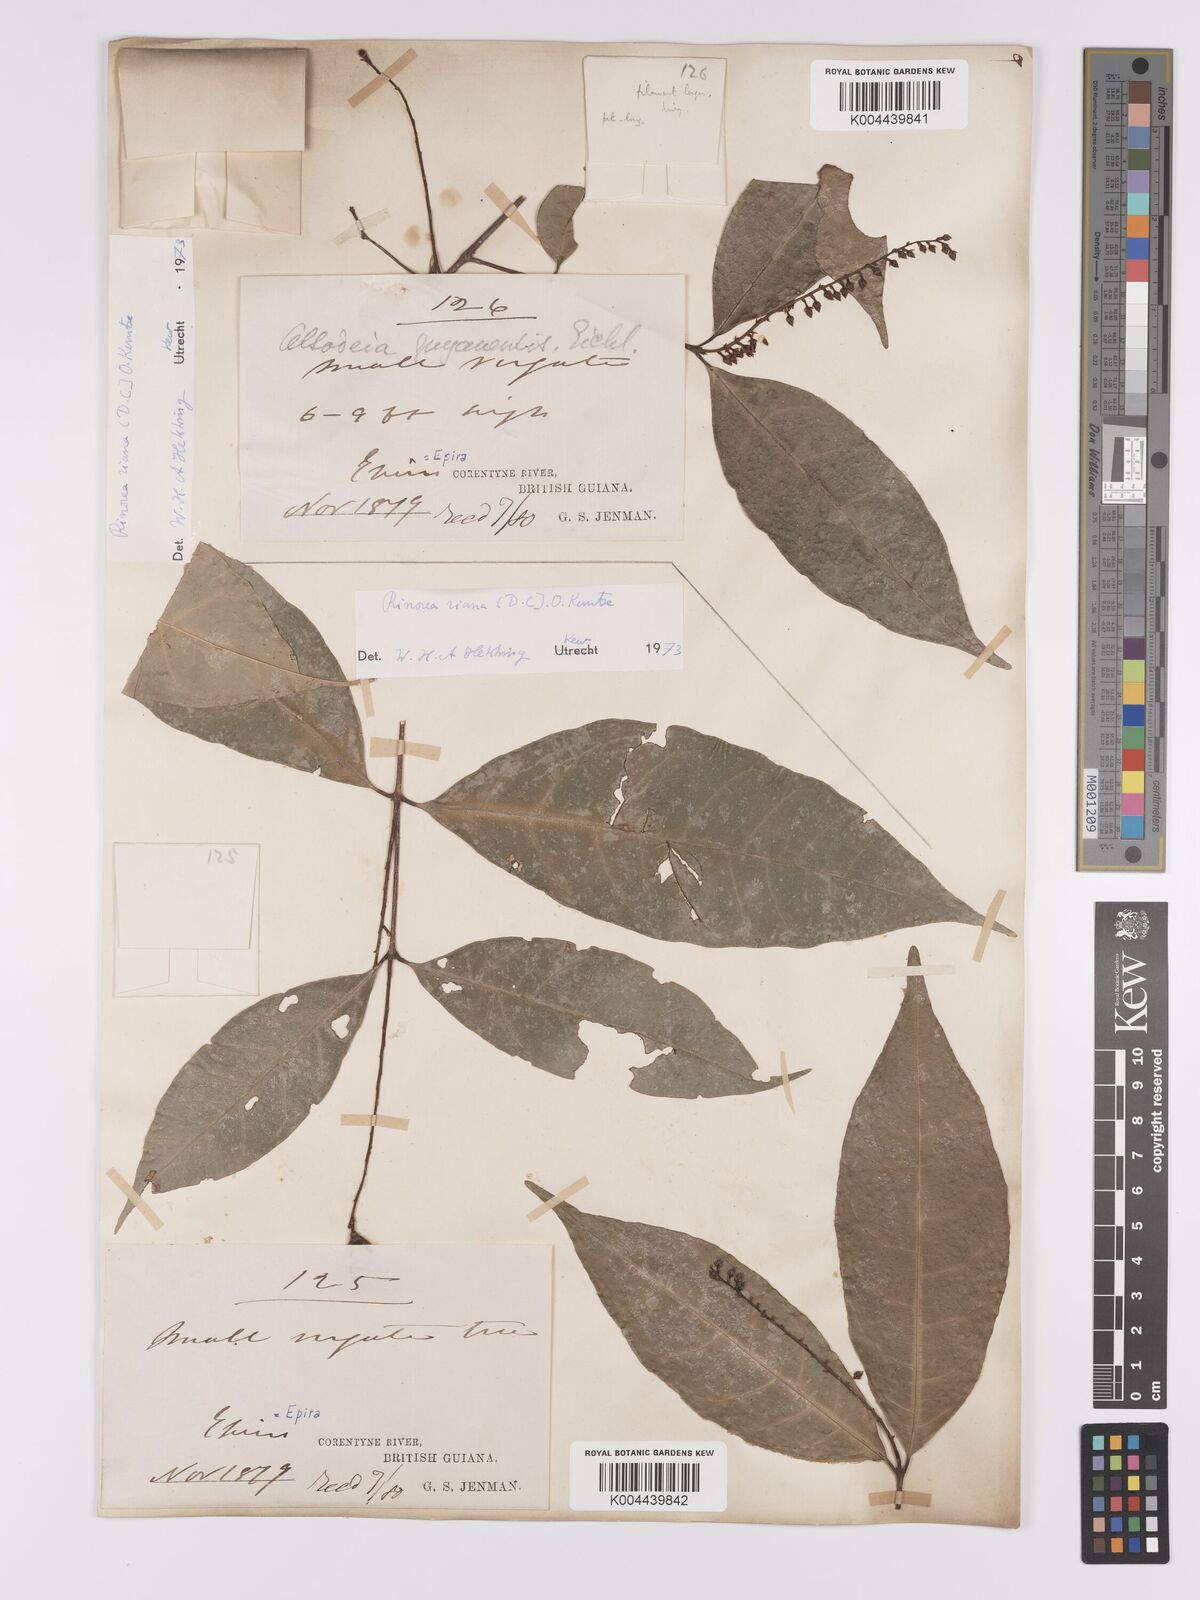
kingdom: Plantae
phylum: Tracheophyta
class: Magnoliopsida
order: Malpighiales
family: Violaceae
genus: Rinorea
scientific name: Rinorea riana
